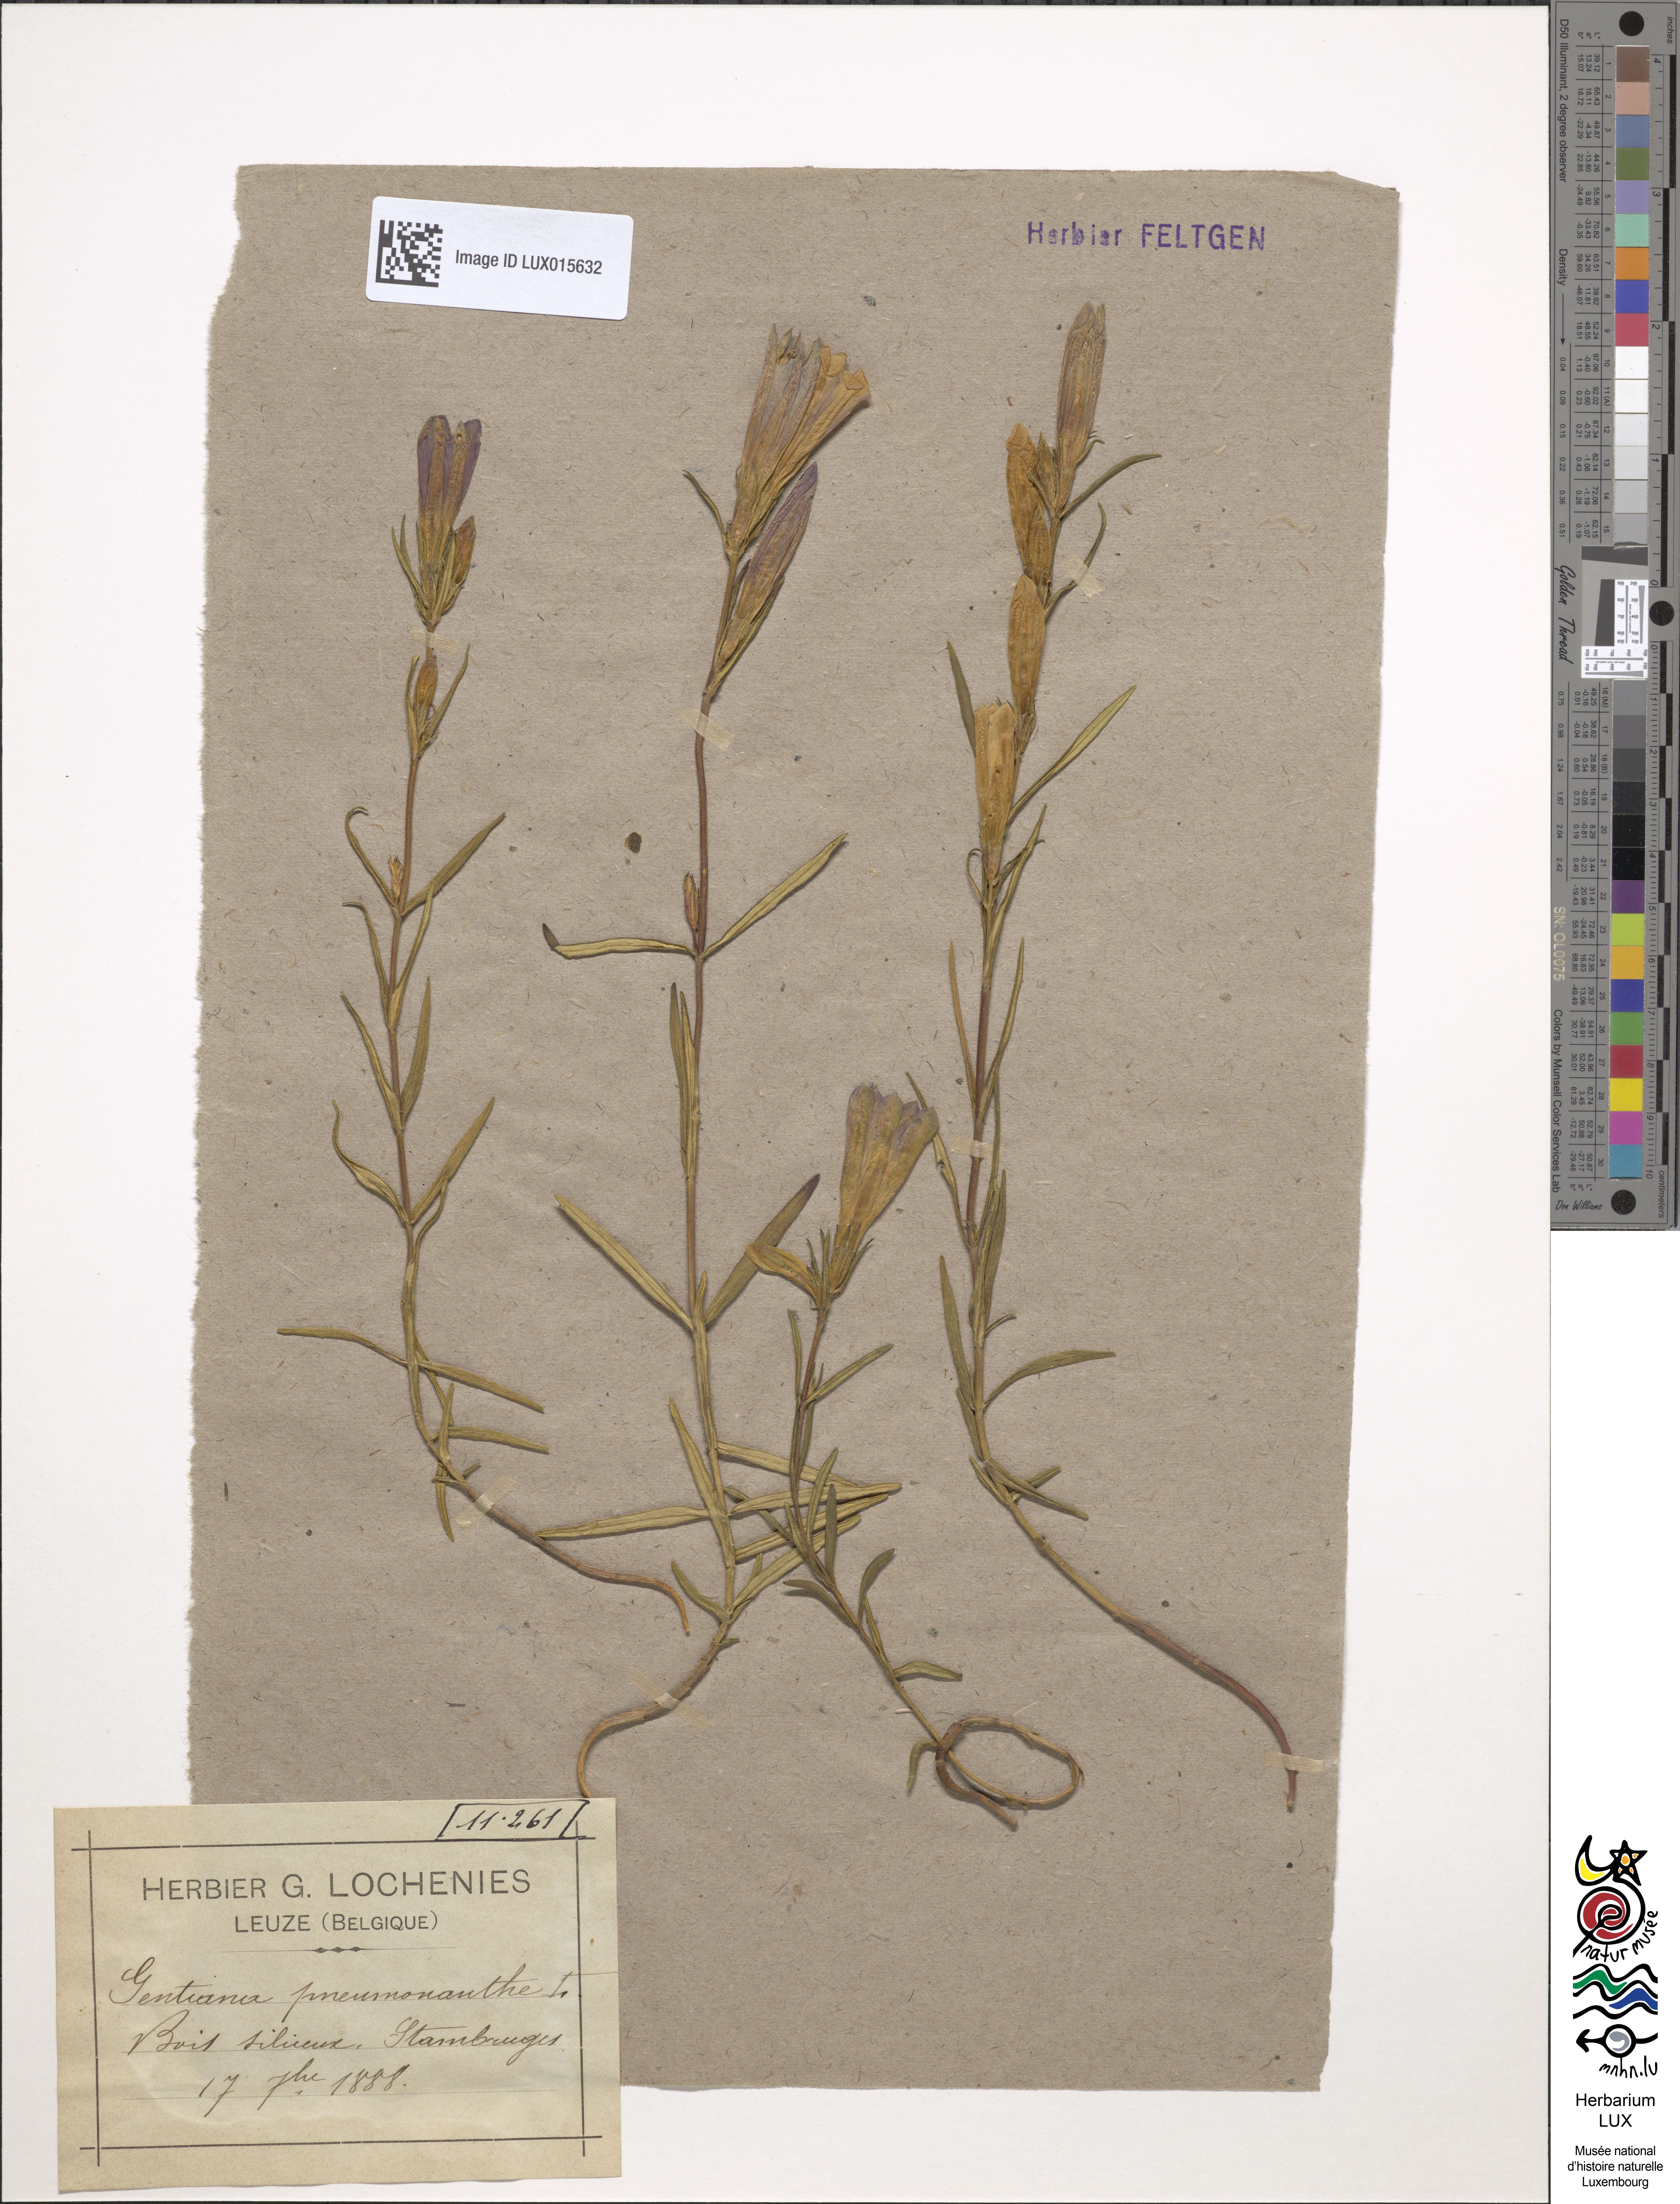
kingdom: Plantae
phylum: Tracheophyta
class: Magnoliopsida
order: Gentianales
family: Gentianaceae
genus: Gentiana
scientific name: Gentiana pneumonanthe
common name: Marsh gentian
